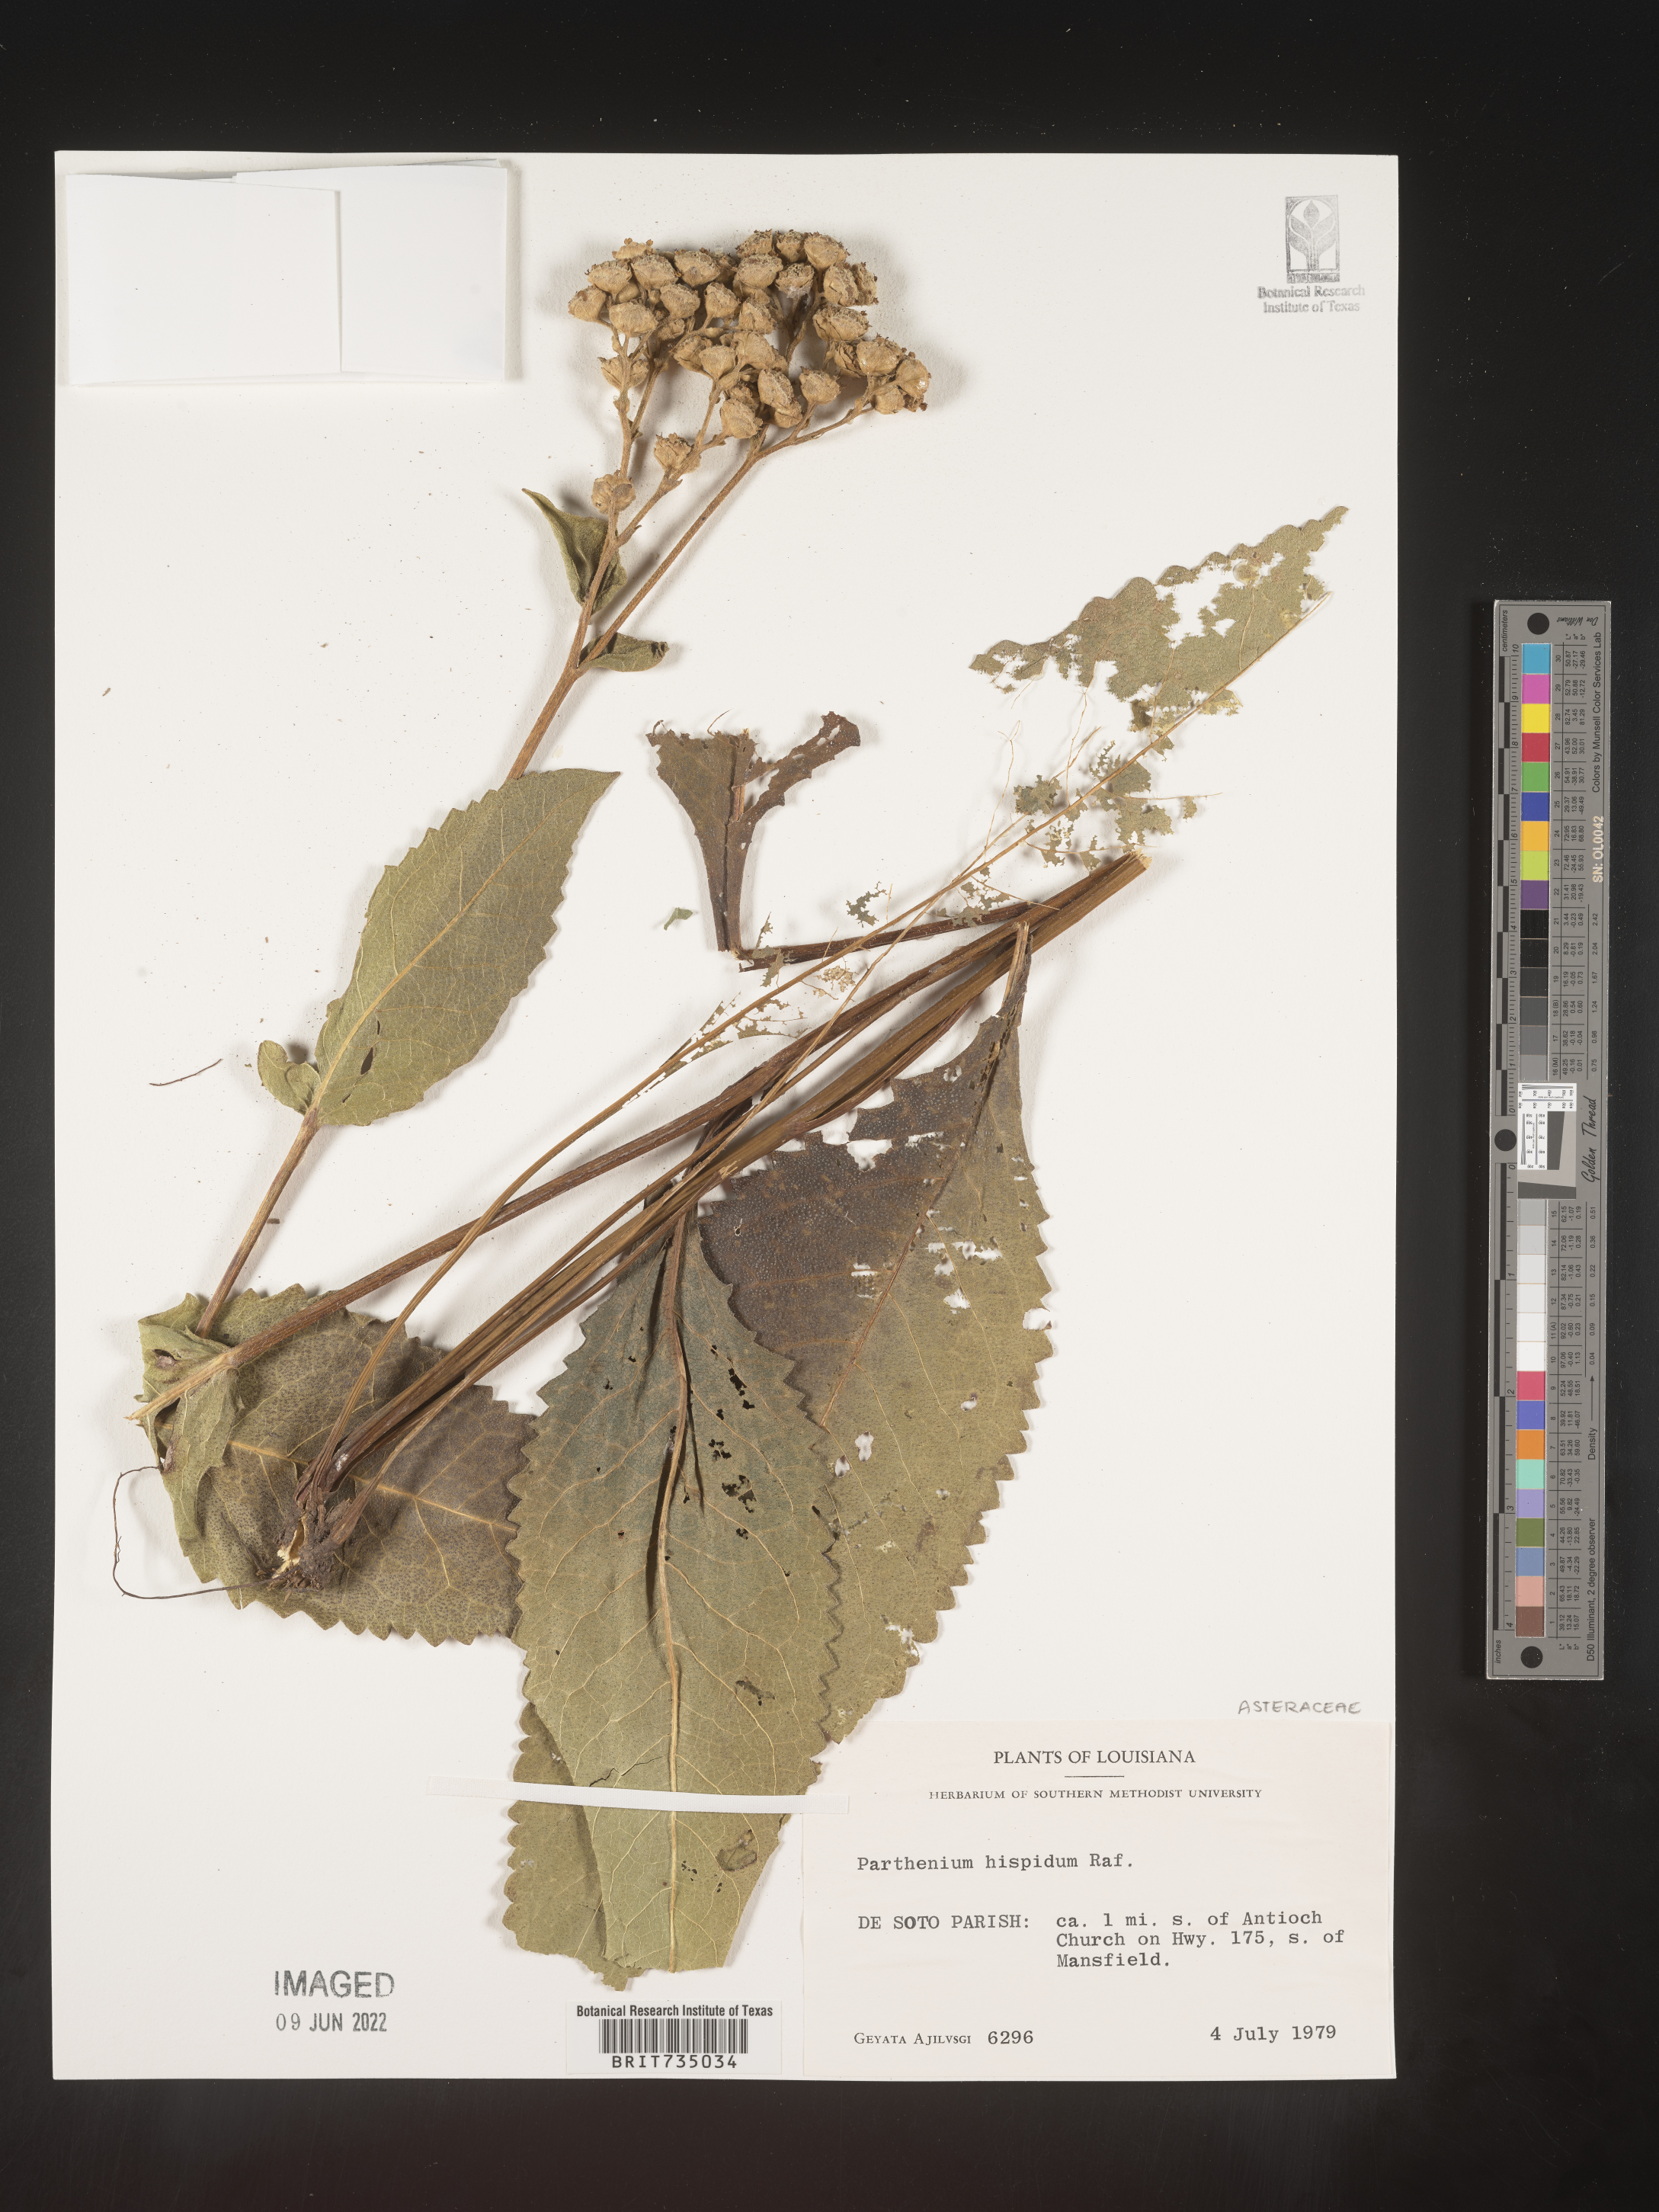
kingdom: Plantae
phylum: Tracheophyta
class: Magnoliopsida
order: Asterales
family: Asteraceae
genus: Parthenium
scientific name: Parthenium hispidum
